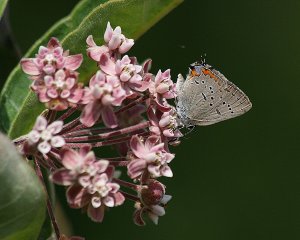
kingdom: Animalia
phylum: Arthropoda
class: Insecta
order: Lepidoptera
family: Lycaenidae
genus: Strymon
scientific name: Strymon acadica
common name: Acadian Hairstreak
